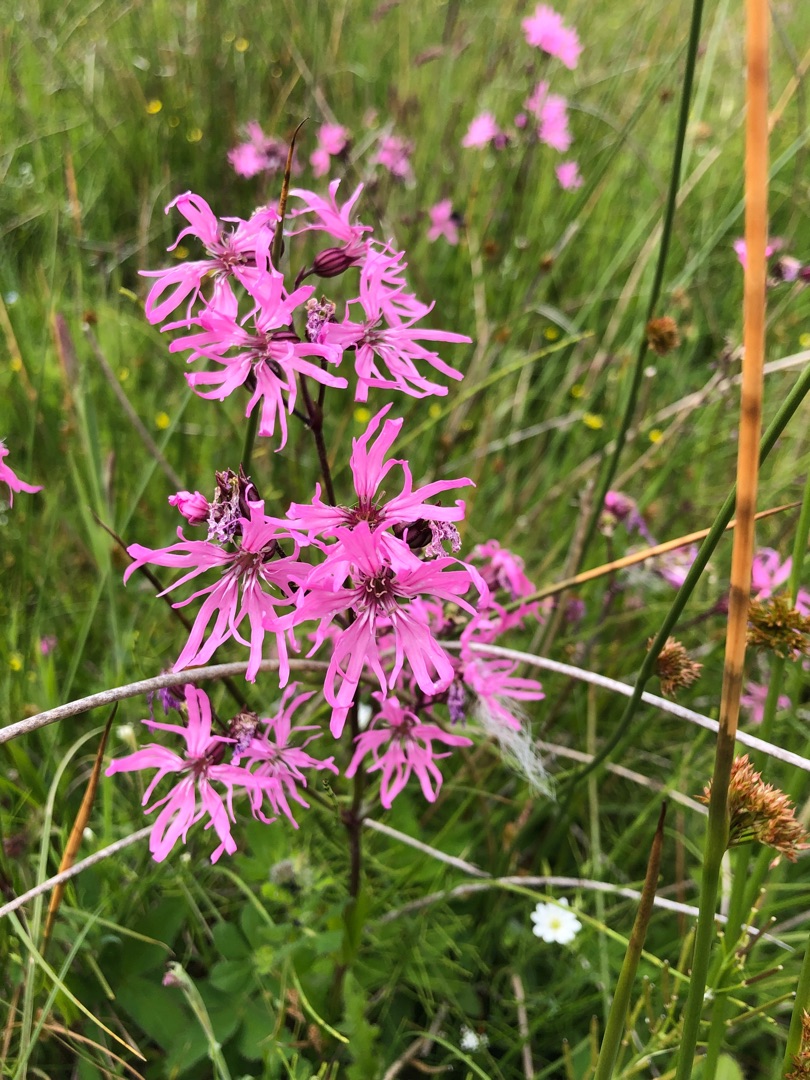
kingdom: Plantae
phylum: Tracheophyta
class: Magnoliopsida
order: Caryophyllales
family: Caryophyllaceae
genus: Silene
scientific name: Silene flos-cuculi
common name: Trævlekrone
